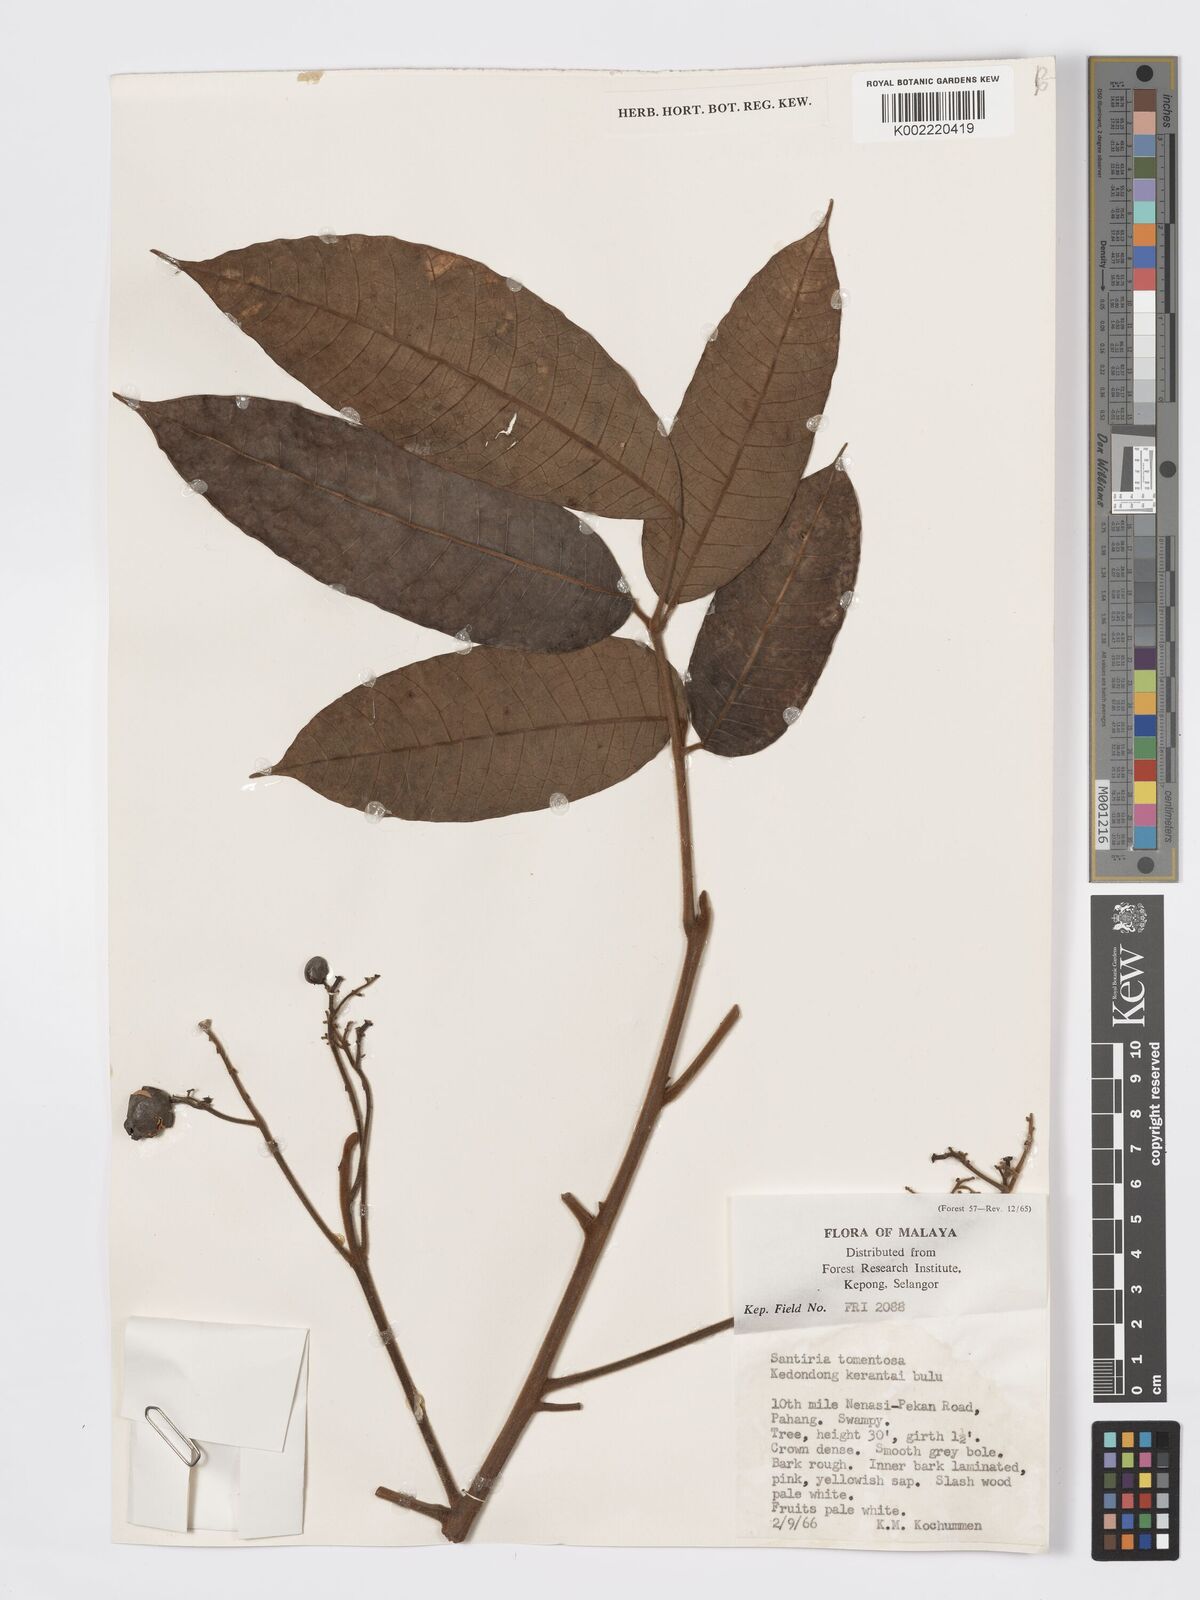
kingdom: Plantae
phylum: Tracheophyta
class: Magnoliopsida
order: Sapindales
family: Burseraceae
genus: Santiria
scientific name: Santiria tomentosa
